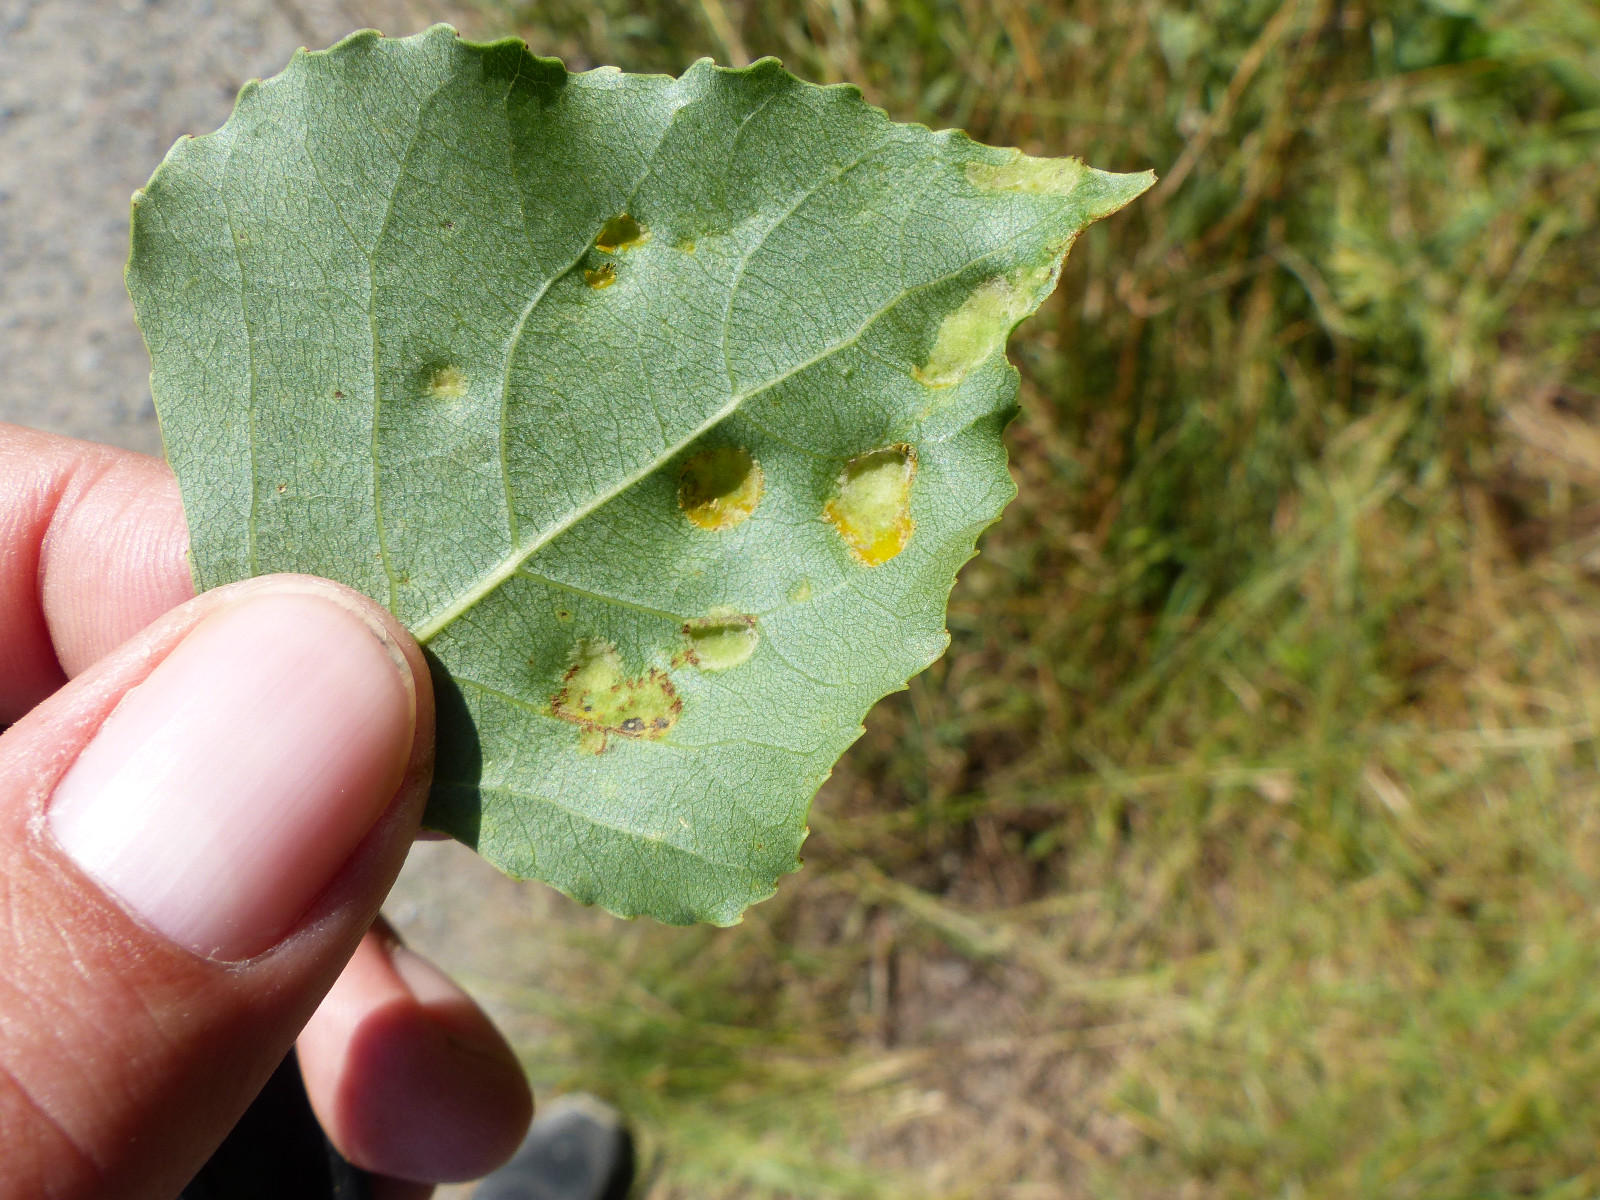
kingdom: Fungi
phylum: Ascomycota
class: Taphrinomycetes
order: Taphrinales
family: Taphrinaceae
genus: Taphrina
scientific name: Taphrina populina
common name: Poplar leaf curl
